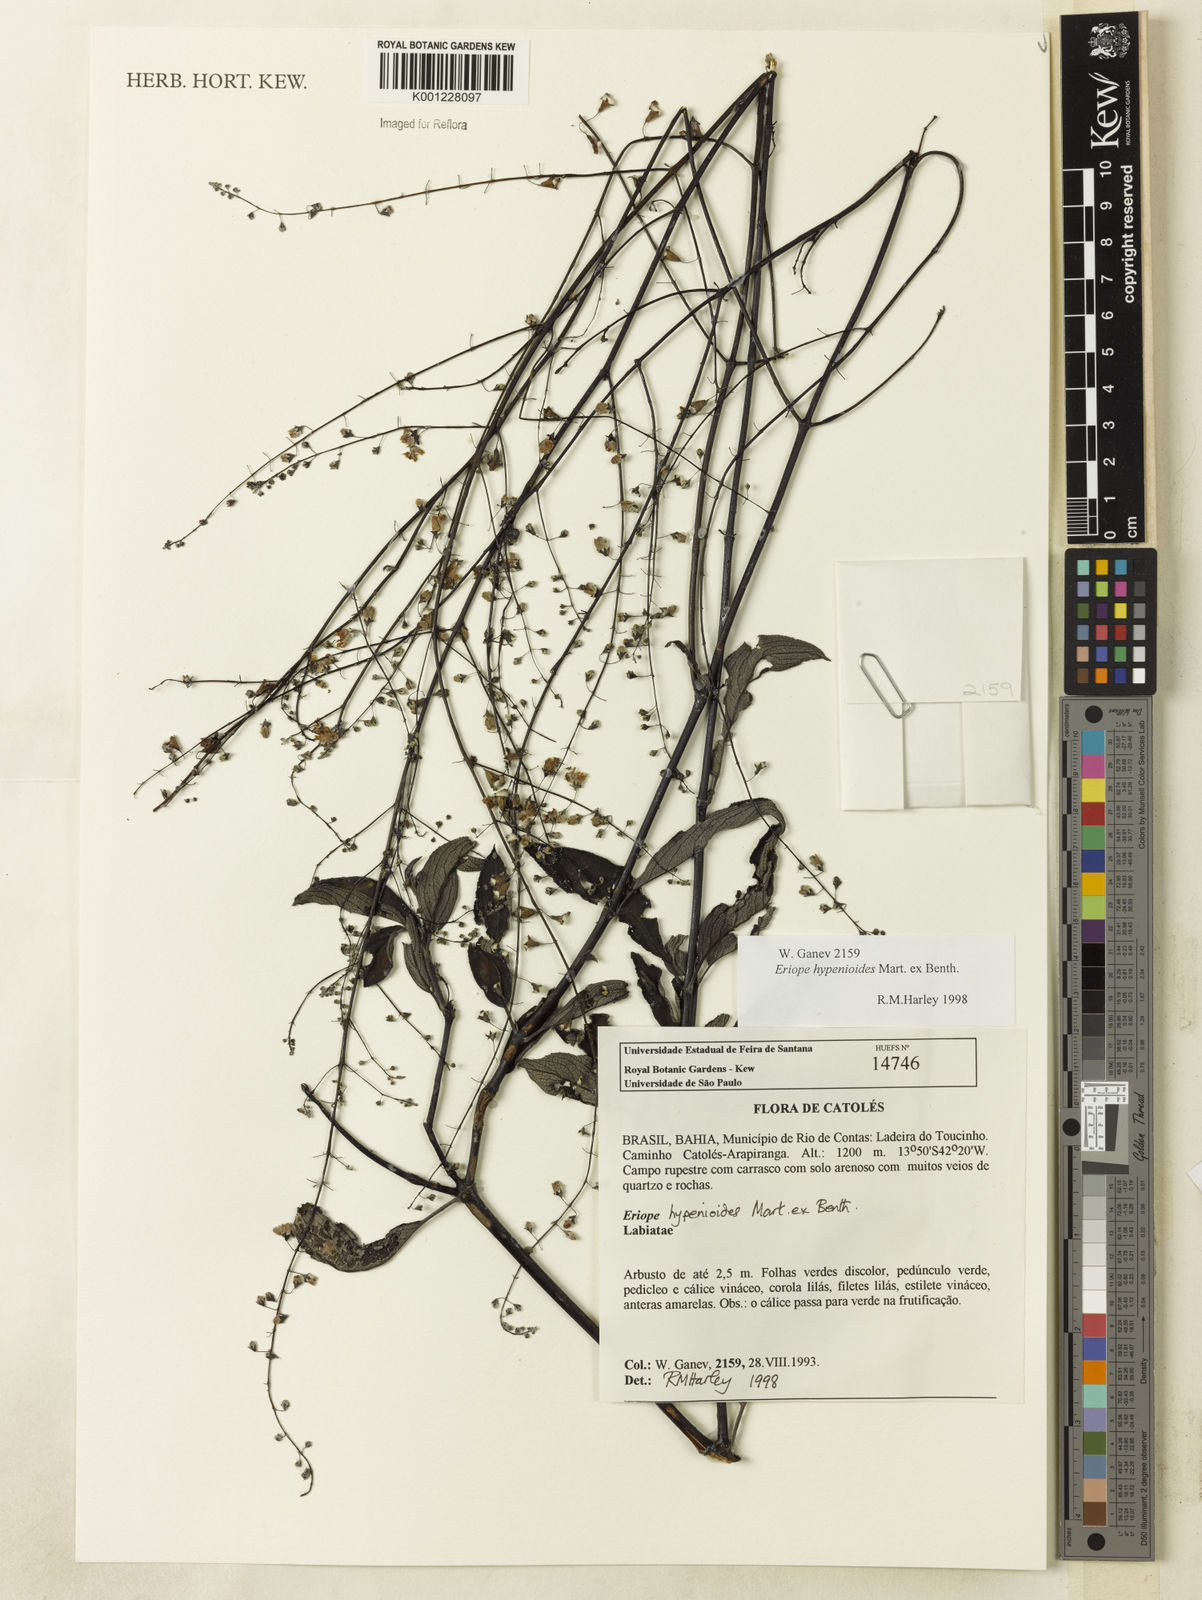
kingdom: Plantae
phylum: Tracheophyta
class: Magnoliopsida
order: Lamiales
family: Lamiaceae
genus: Eriope
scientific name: Eriope hypenioides
